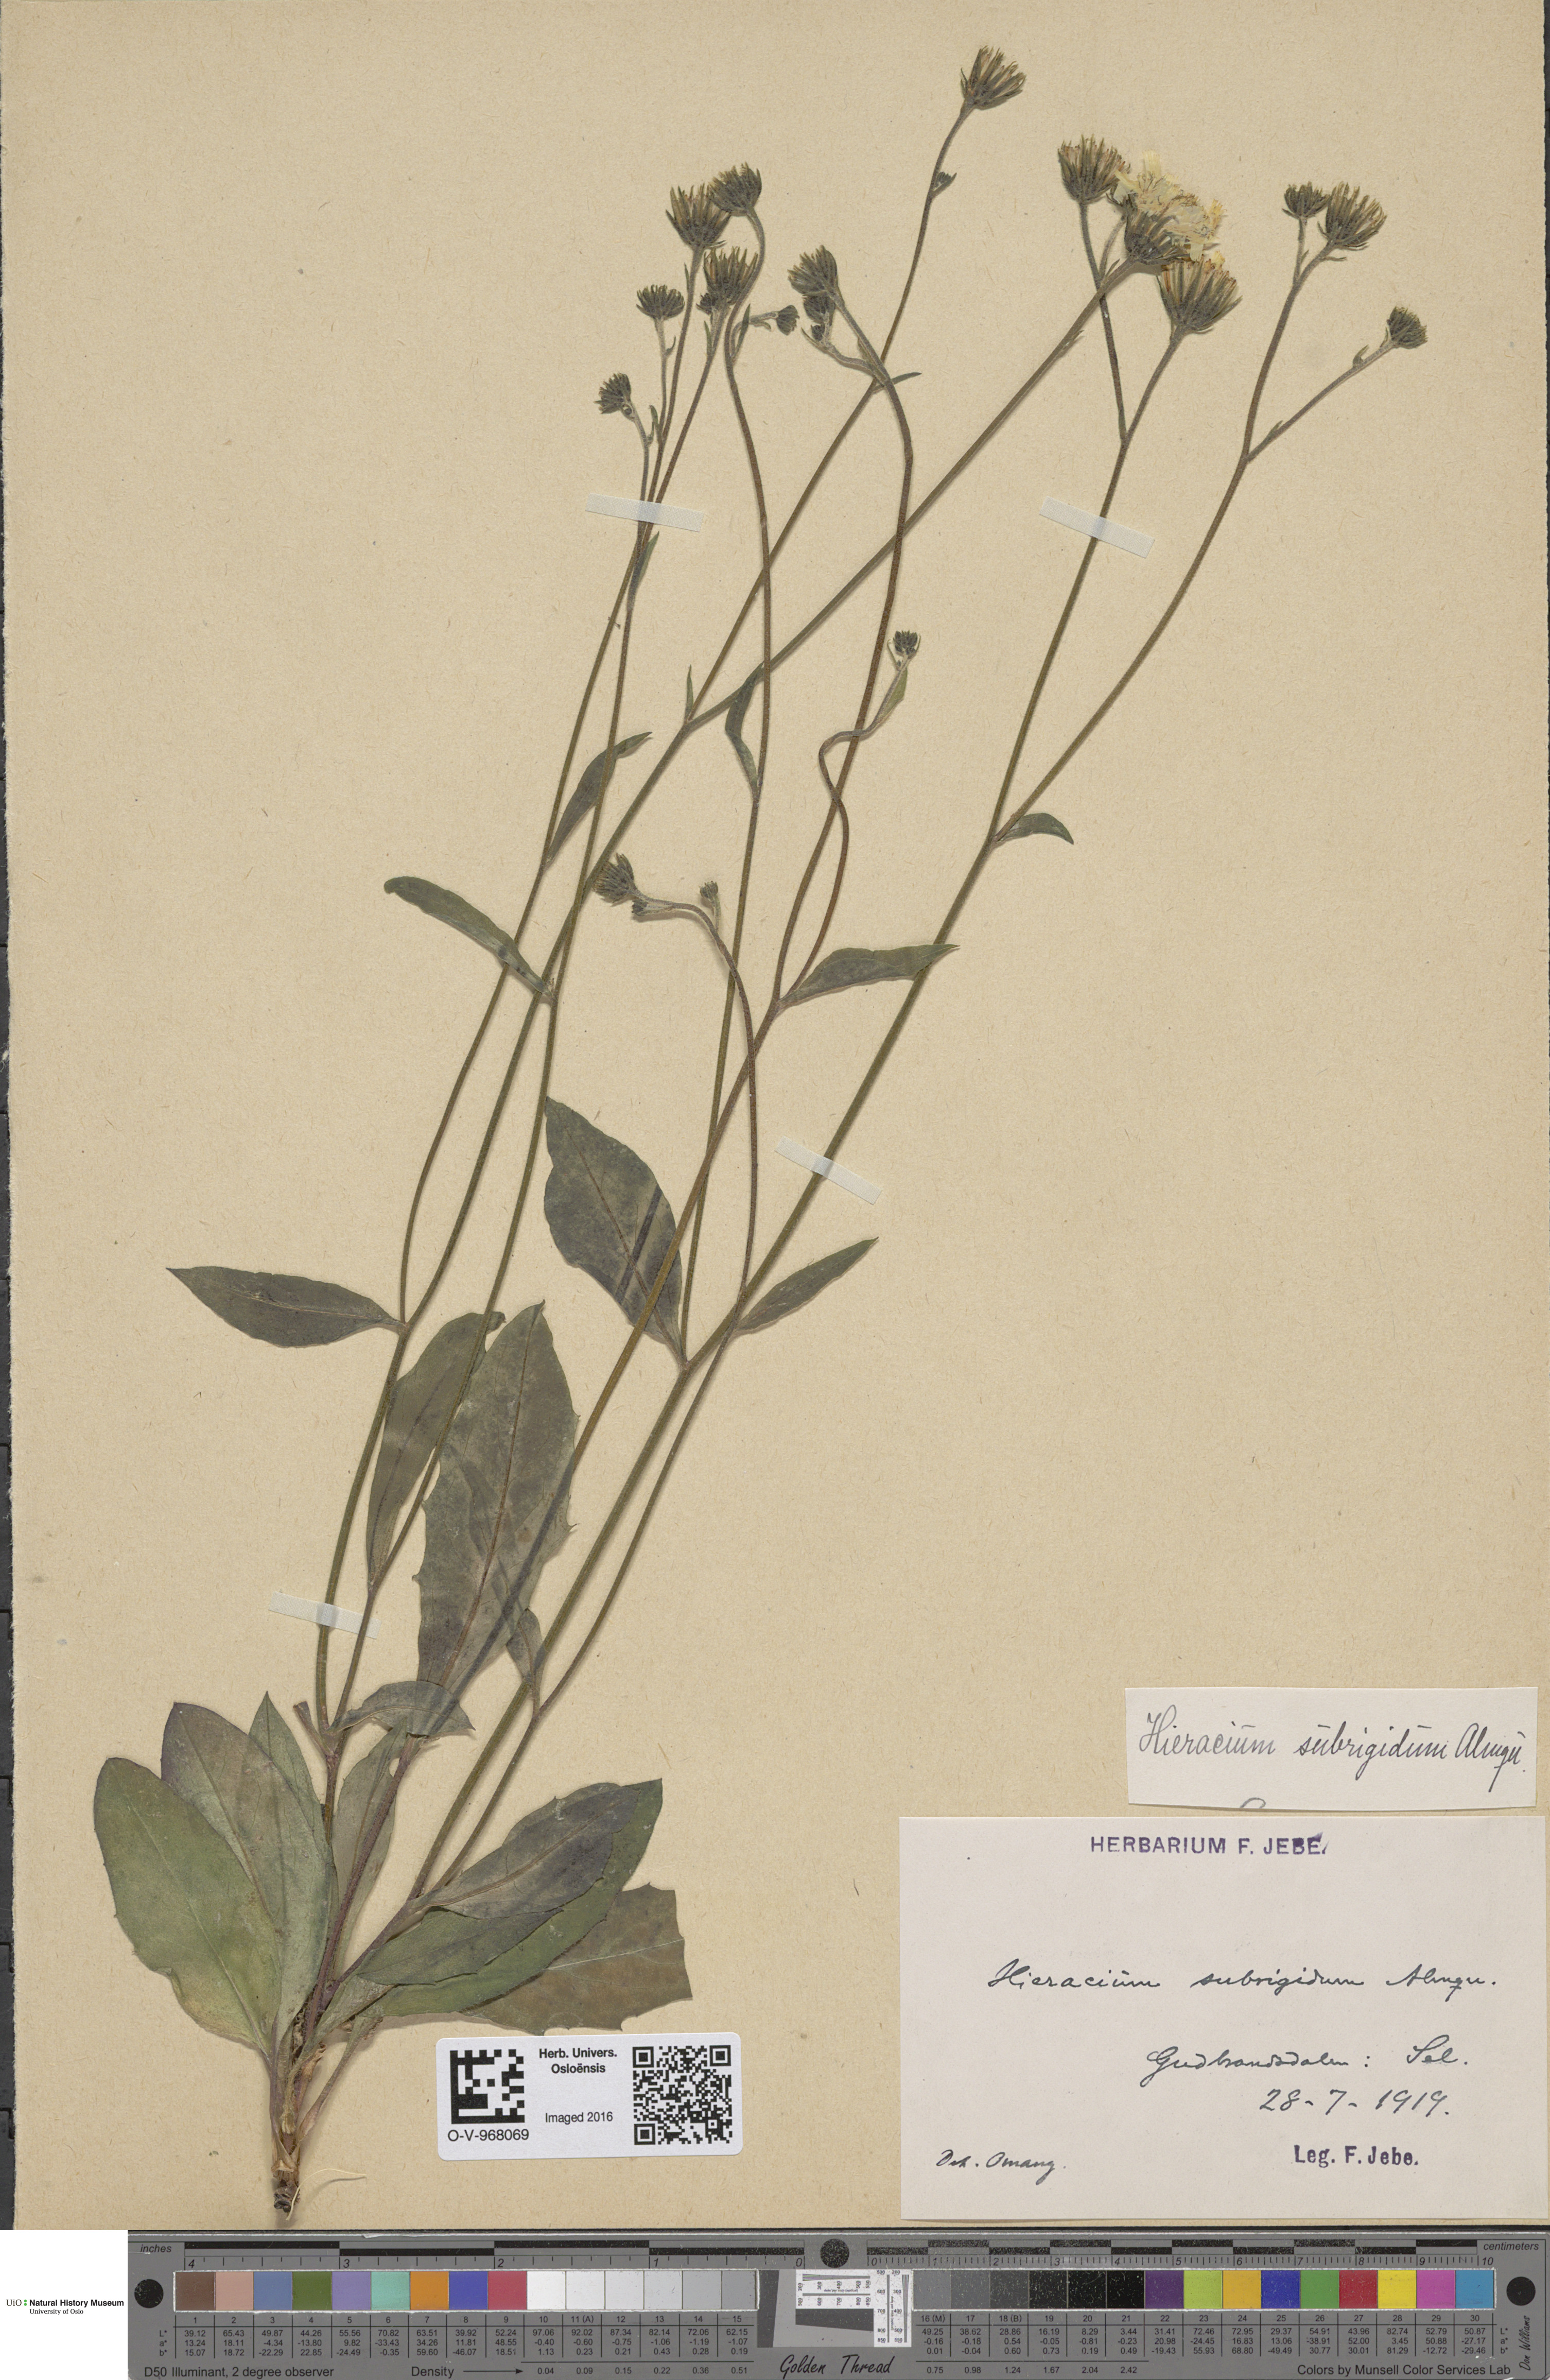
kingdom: Plantae
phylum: Tracheophyta
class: Magnoliopsida
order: Asterales
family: Asteraceae
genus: Hieracium
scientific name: Hieracium subrigidum
